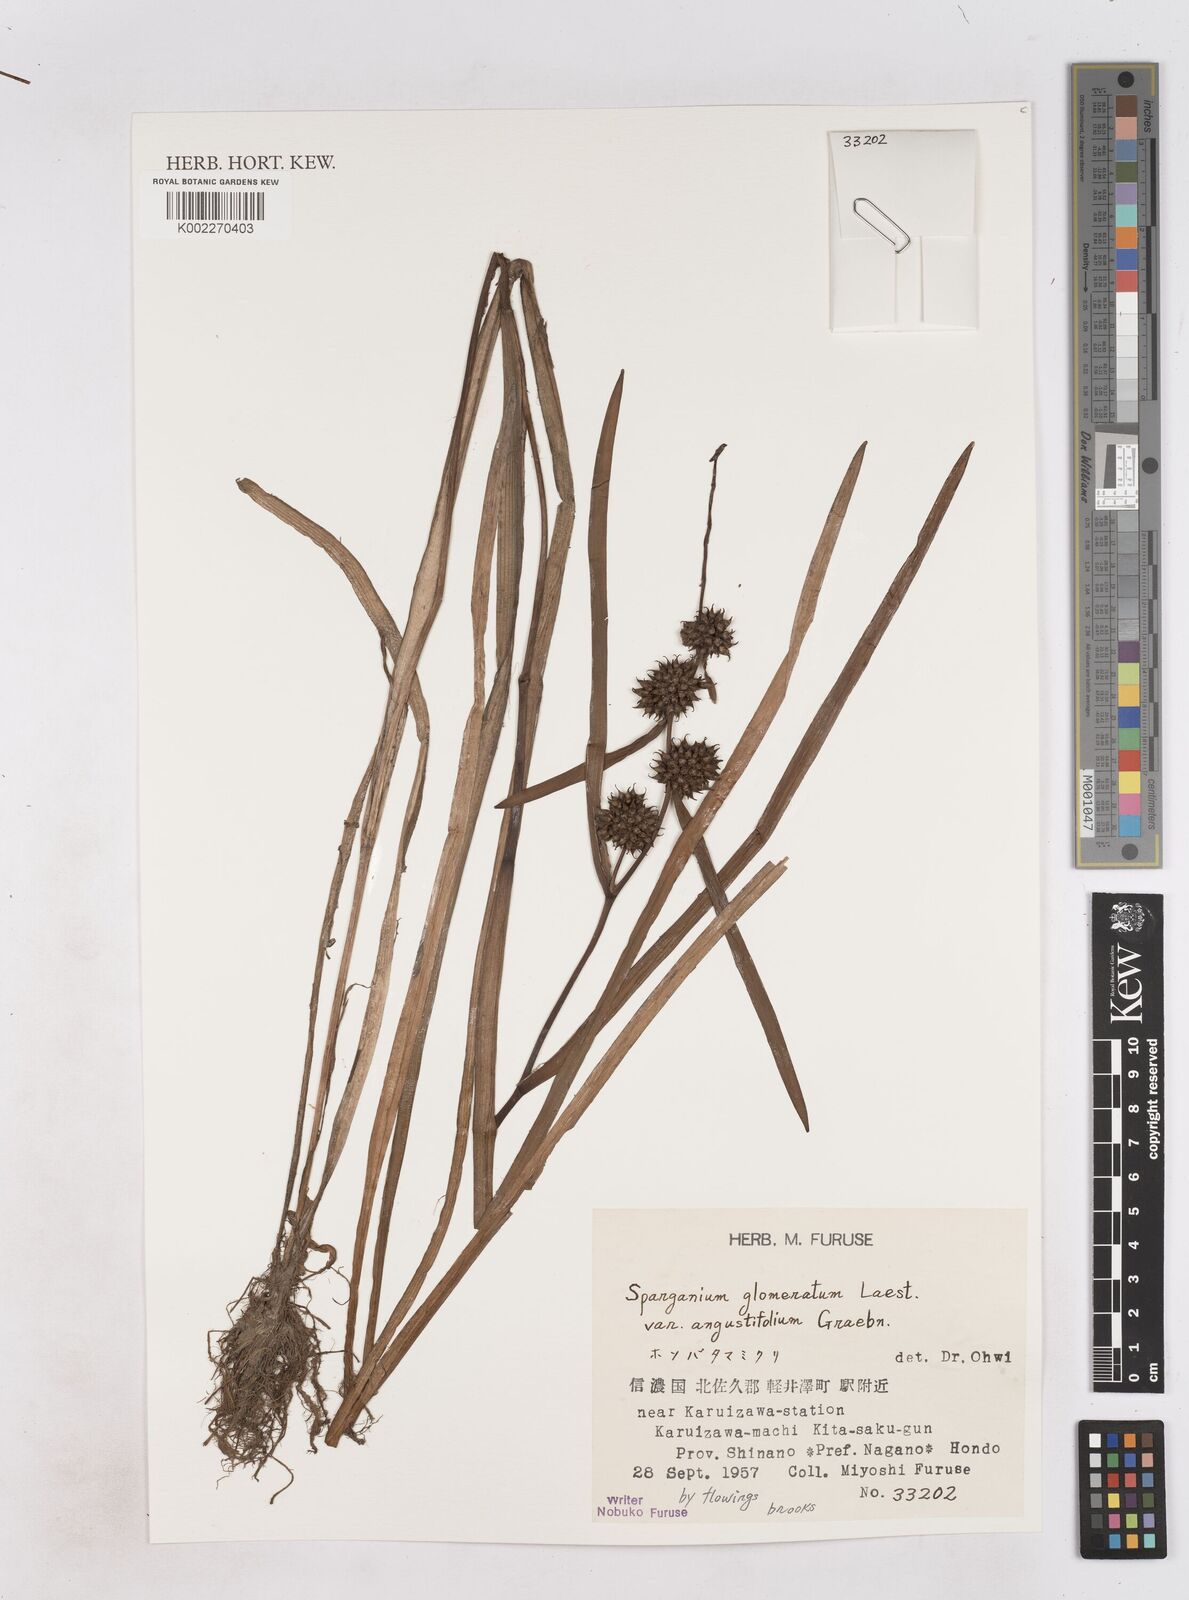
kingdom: Plantae
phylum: Tracheophyta
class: Liliopsida
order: Poales
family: Typhaceae
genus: Sparganium
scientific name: Sparganium glomeratum
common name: Clustered burreed
